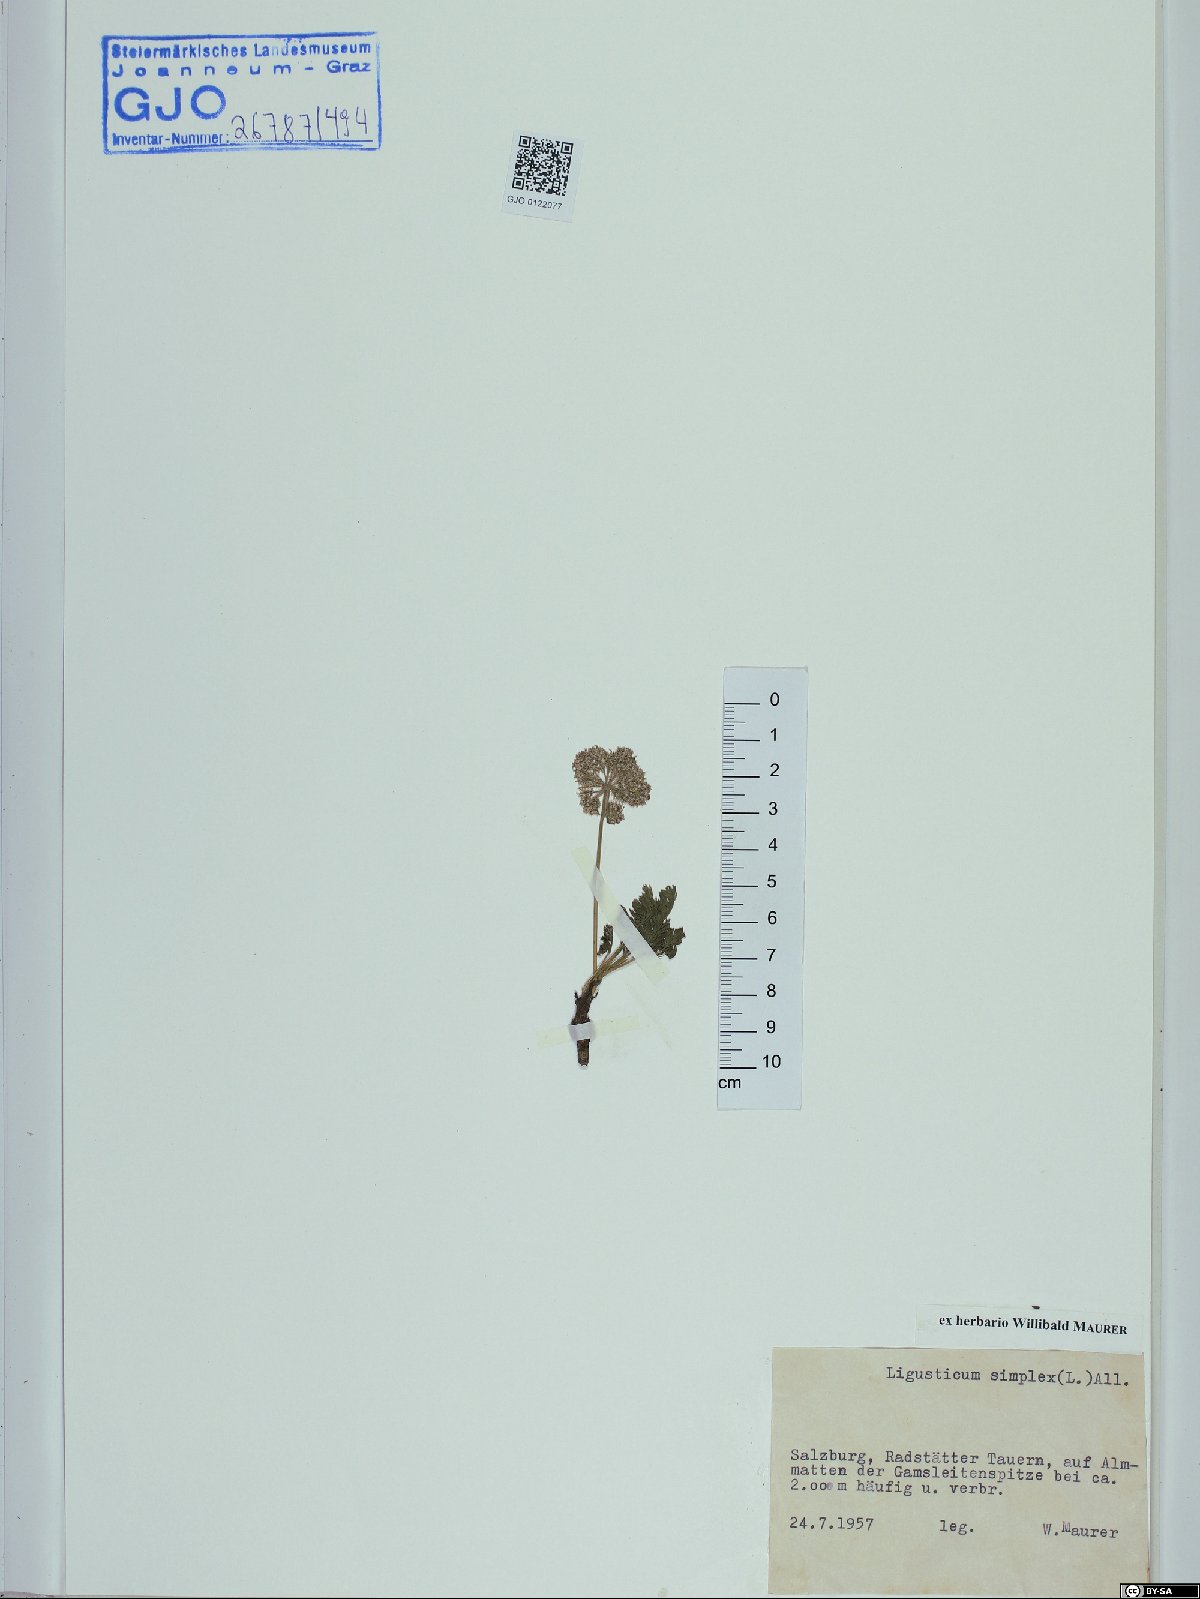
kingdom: Plantae
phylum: Tracheophyta
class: Magnoliopsida
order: Apiales
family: Apiaceae
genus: Pachypleurum
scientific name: Pachypleurum mutellinoides
